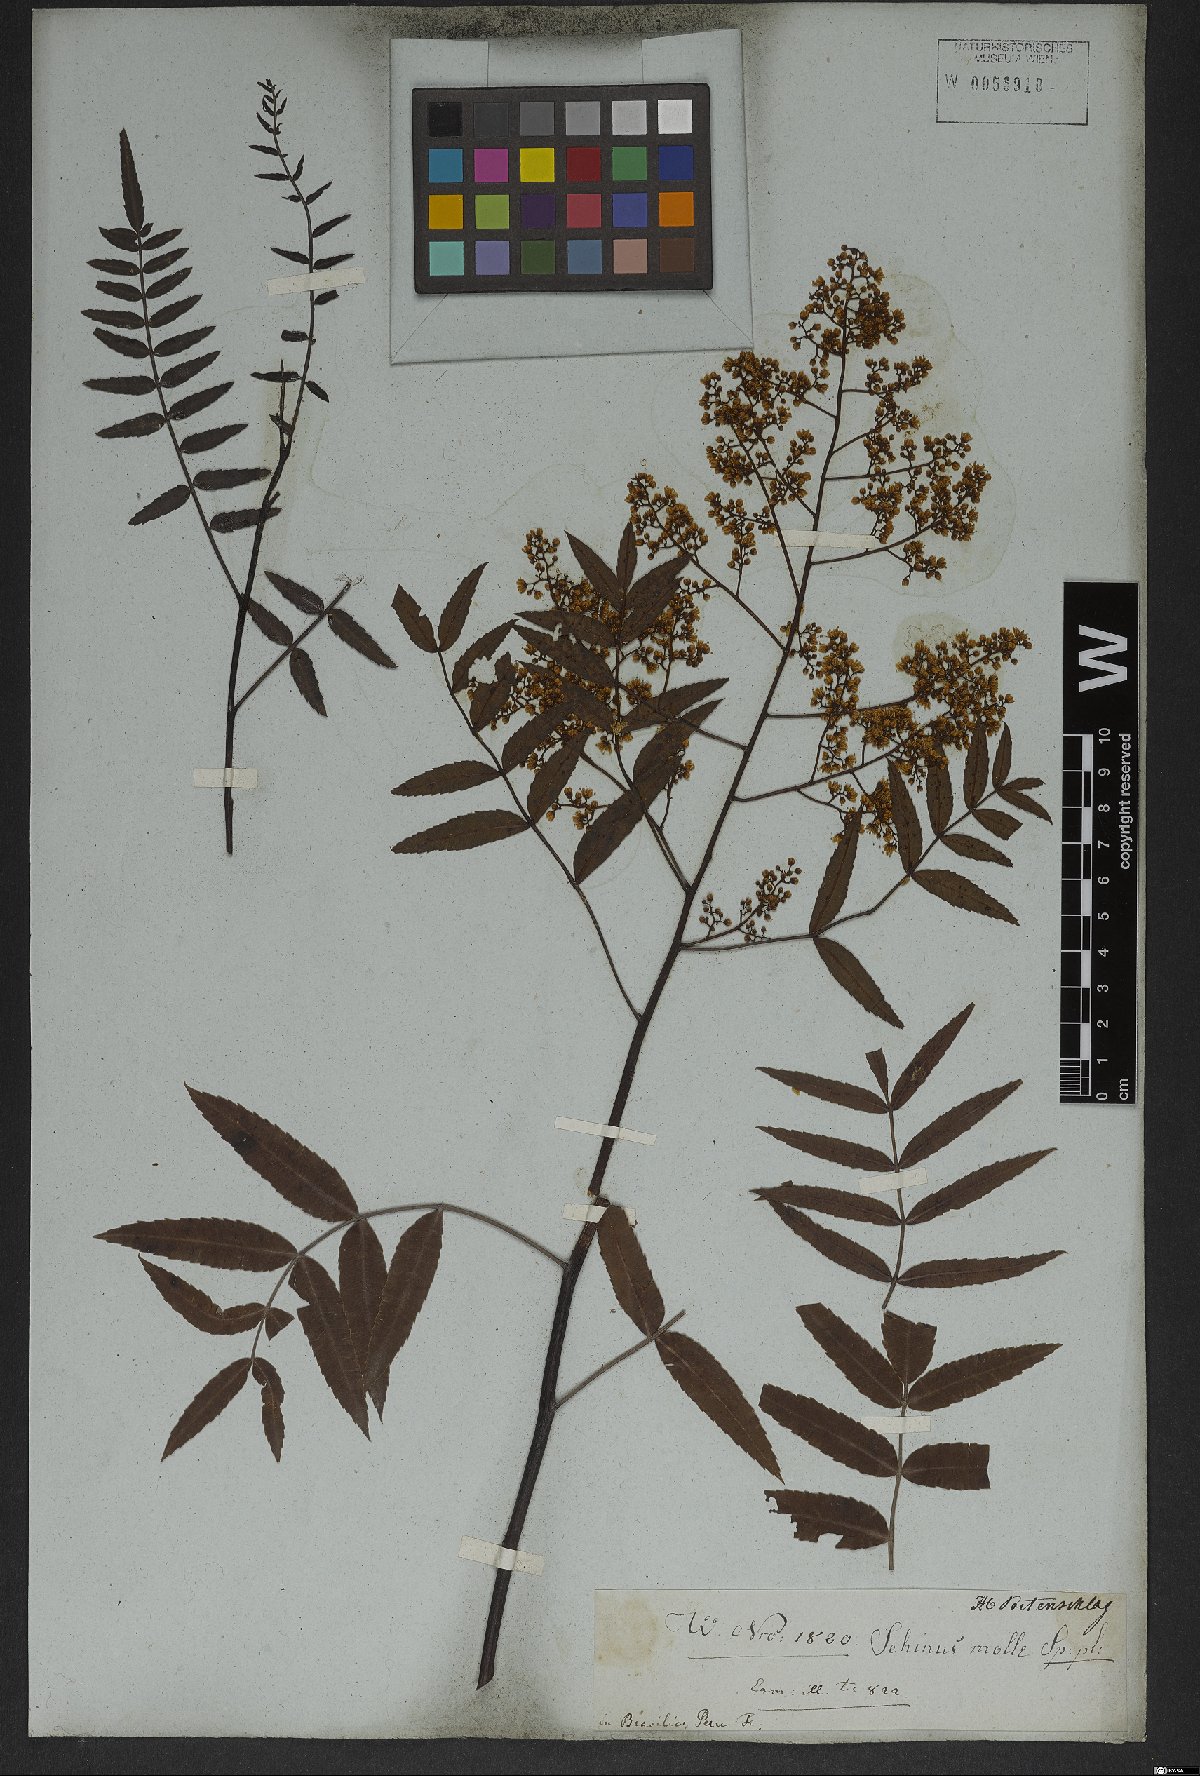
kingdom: Plantae
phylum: Tracheophyta
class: Magnoliopsida
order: Sapindales
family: Anacardiaceae
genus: Schinus
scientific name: Schinus molle
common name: Peruvian peppertree
